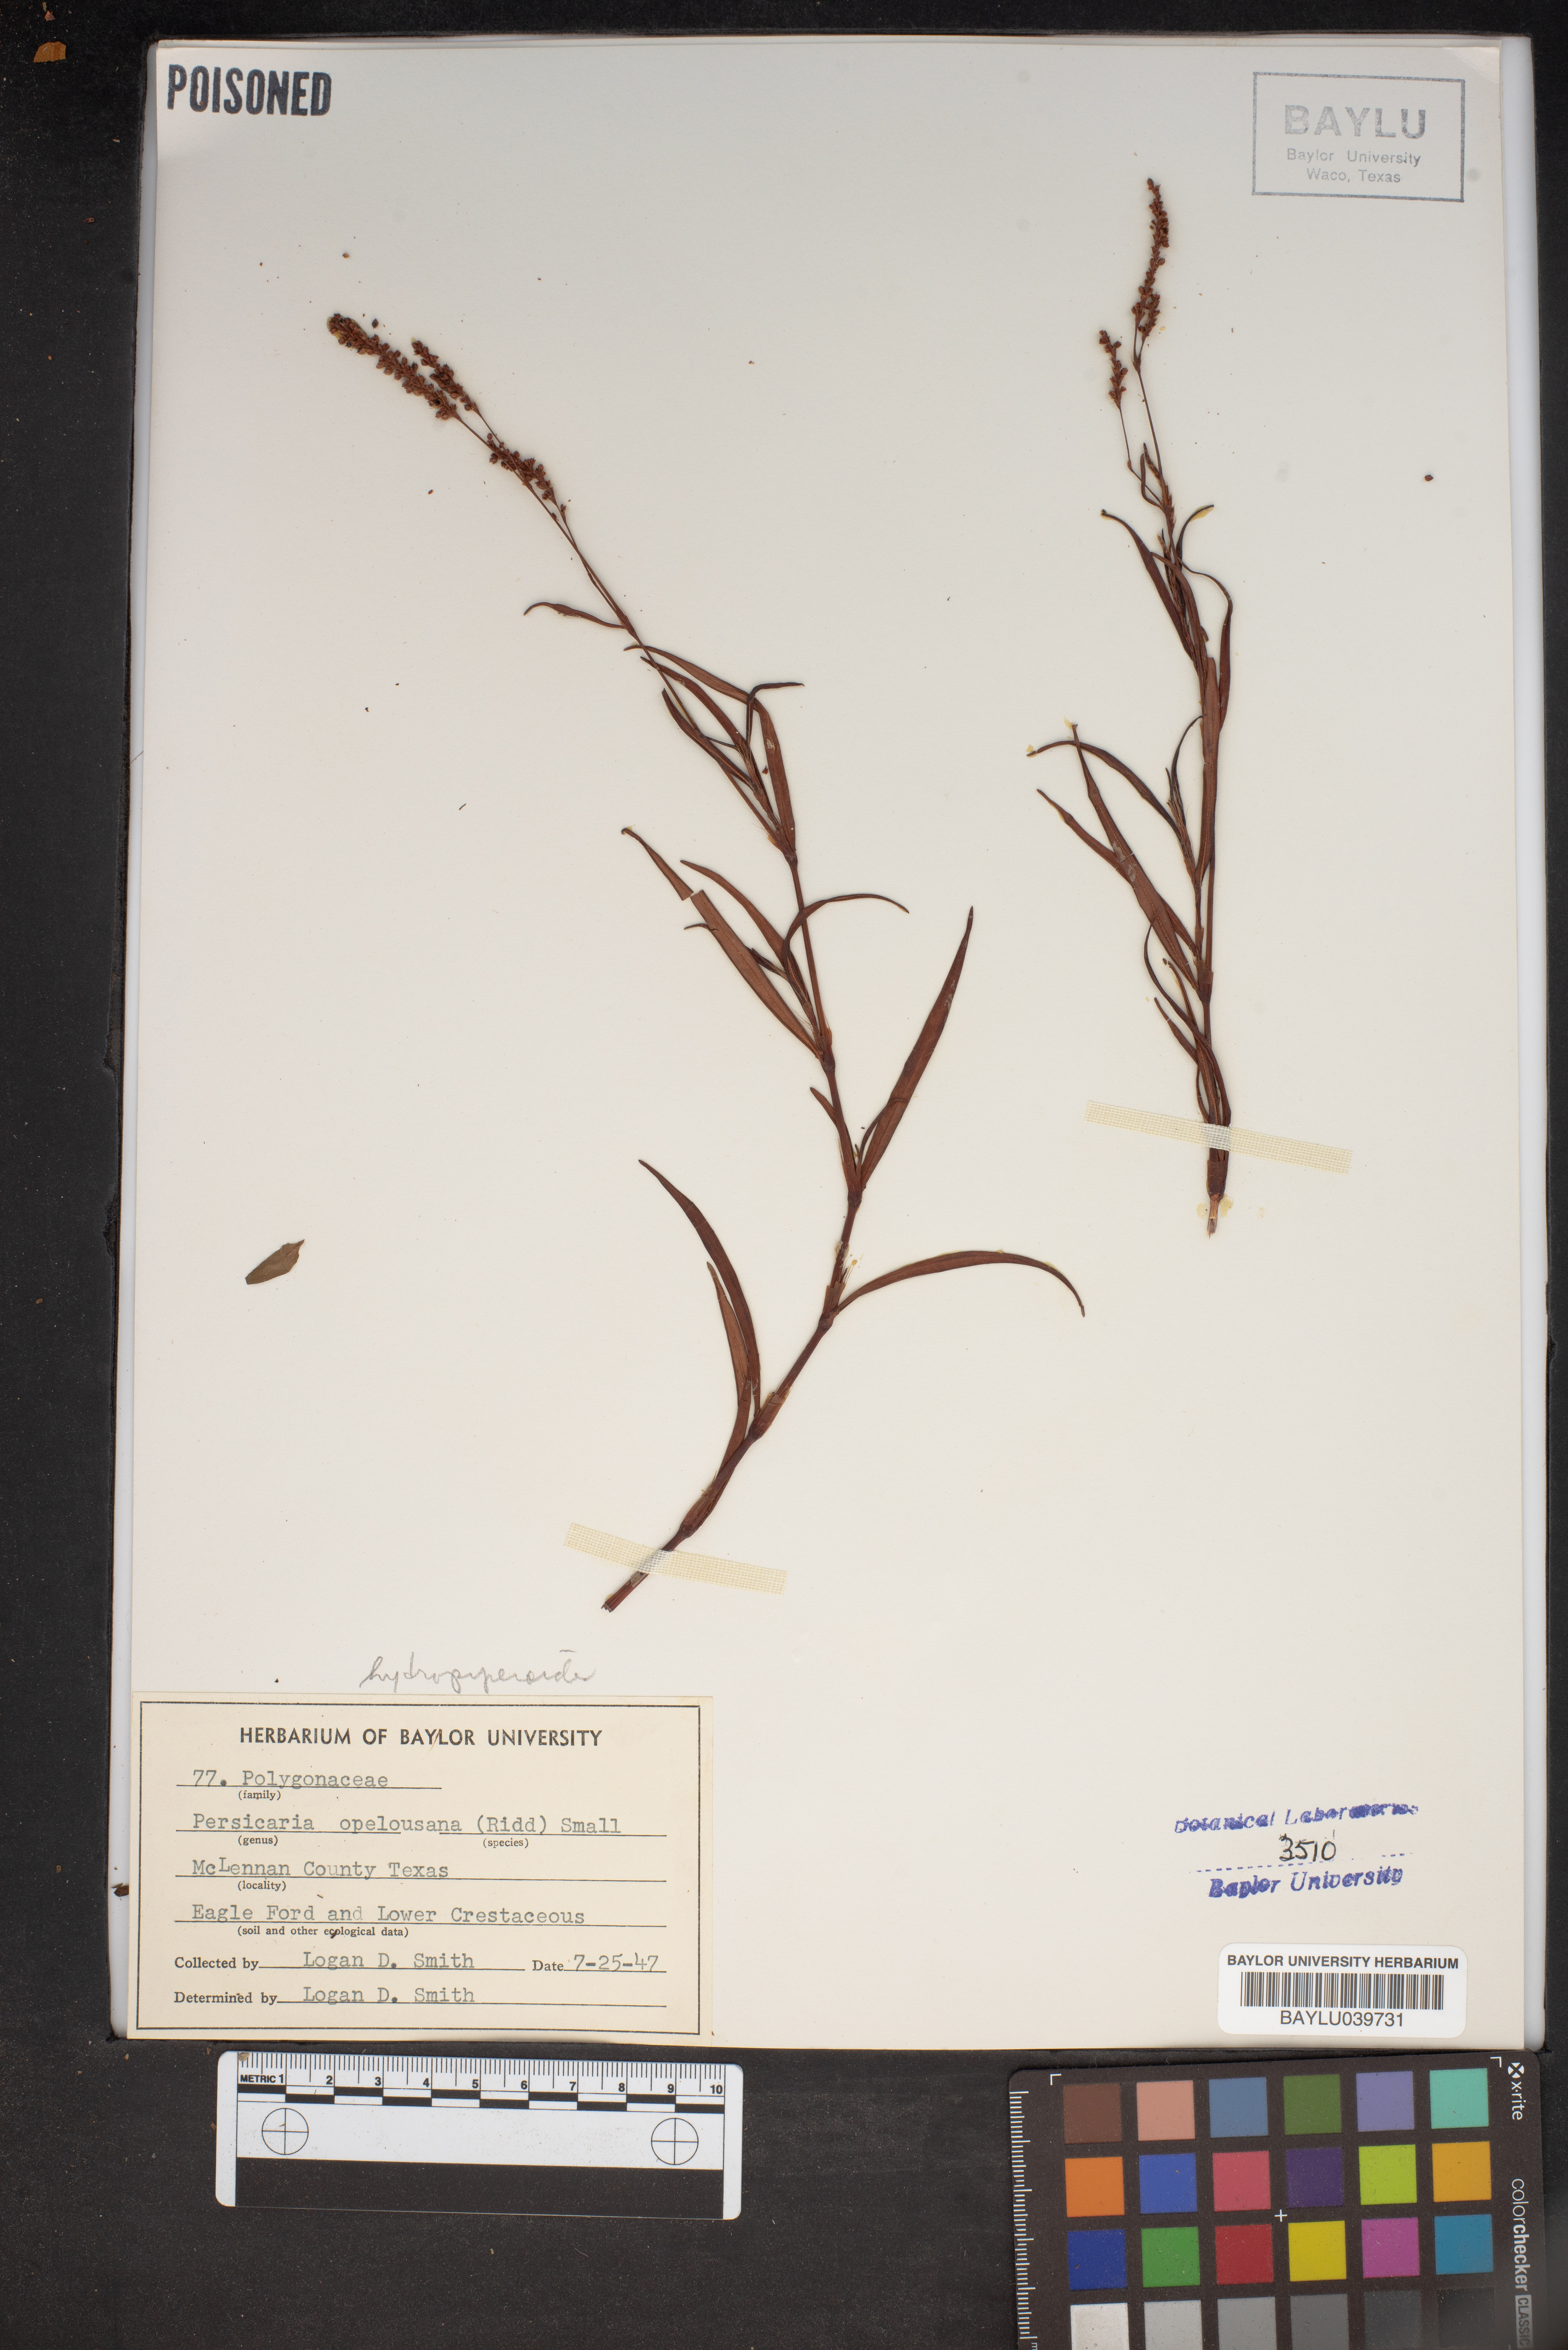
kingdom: Plantae
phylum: Tracheophyta
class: Magnoliopsida
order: Caryophyllales
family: Polygonaceae
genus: Persicaria
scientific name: Persicaria hydropiperoides
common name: Swamp smartweed
